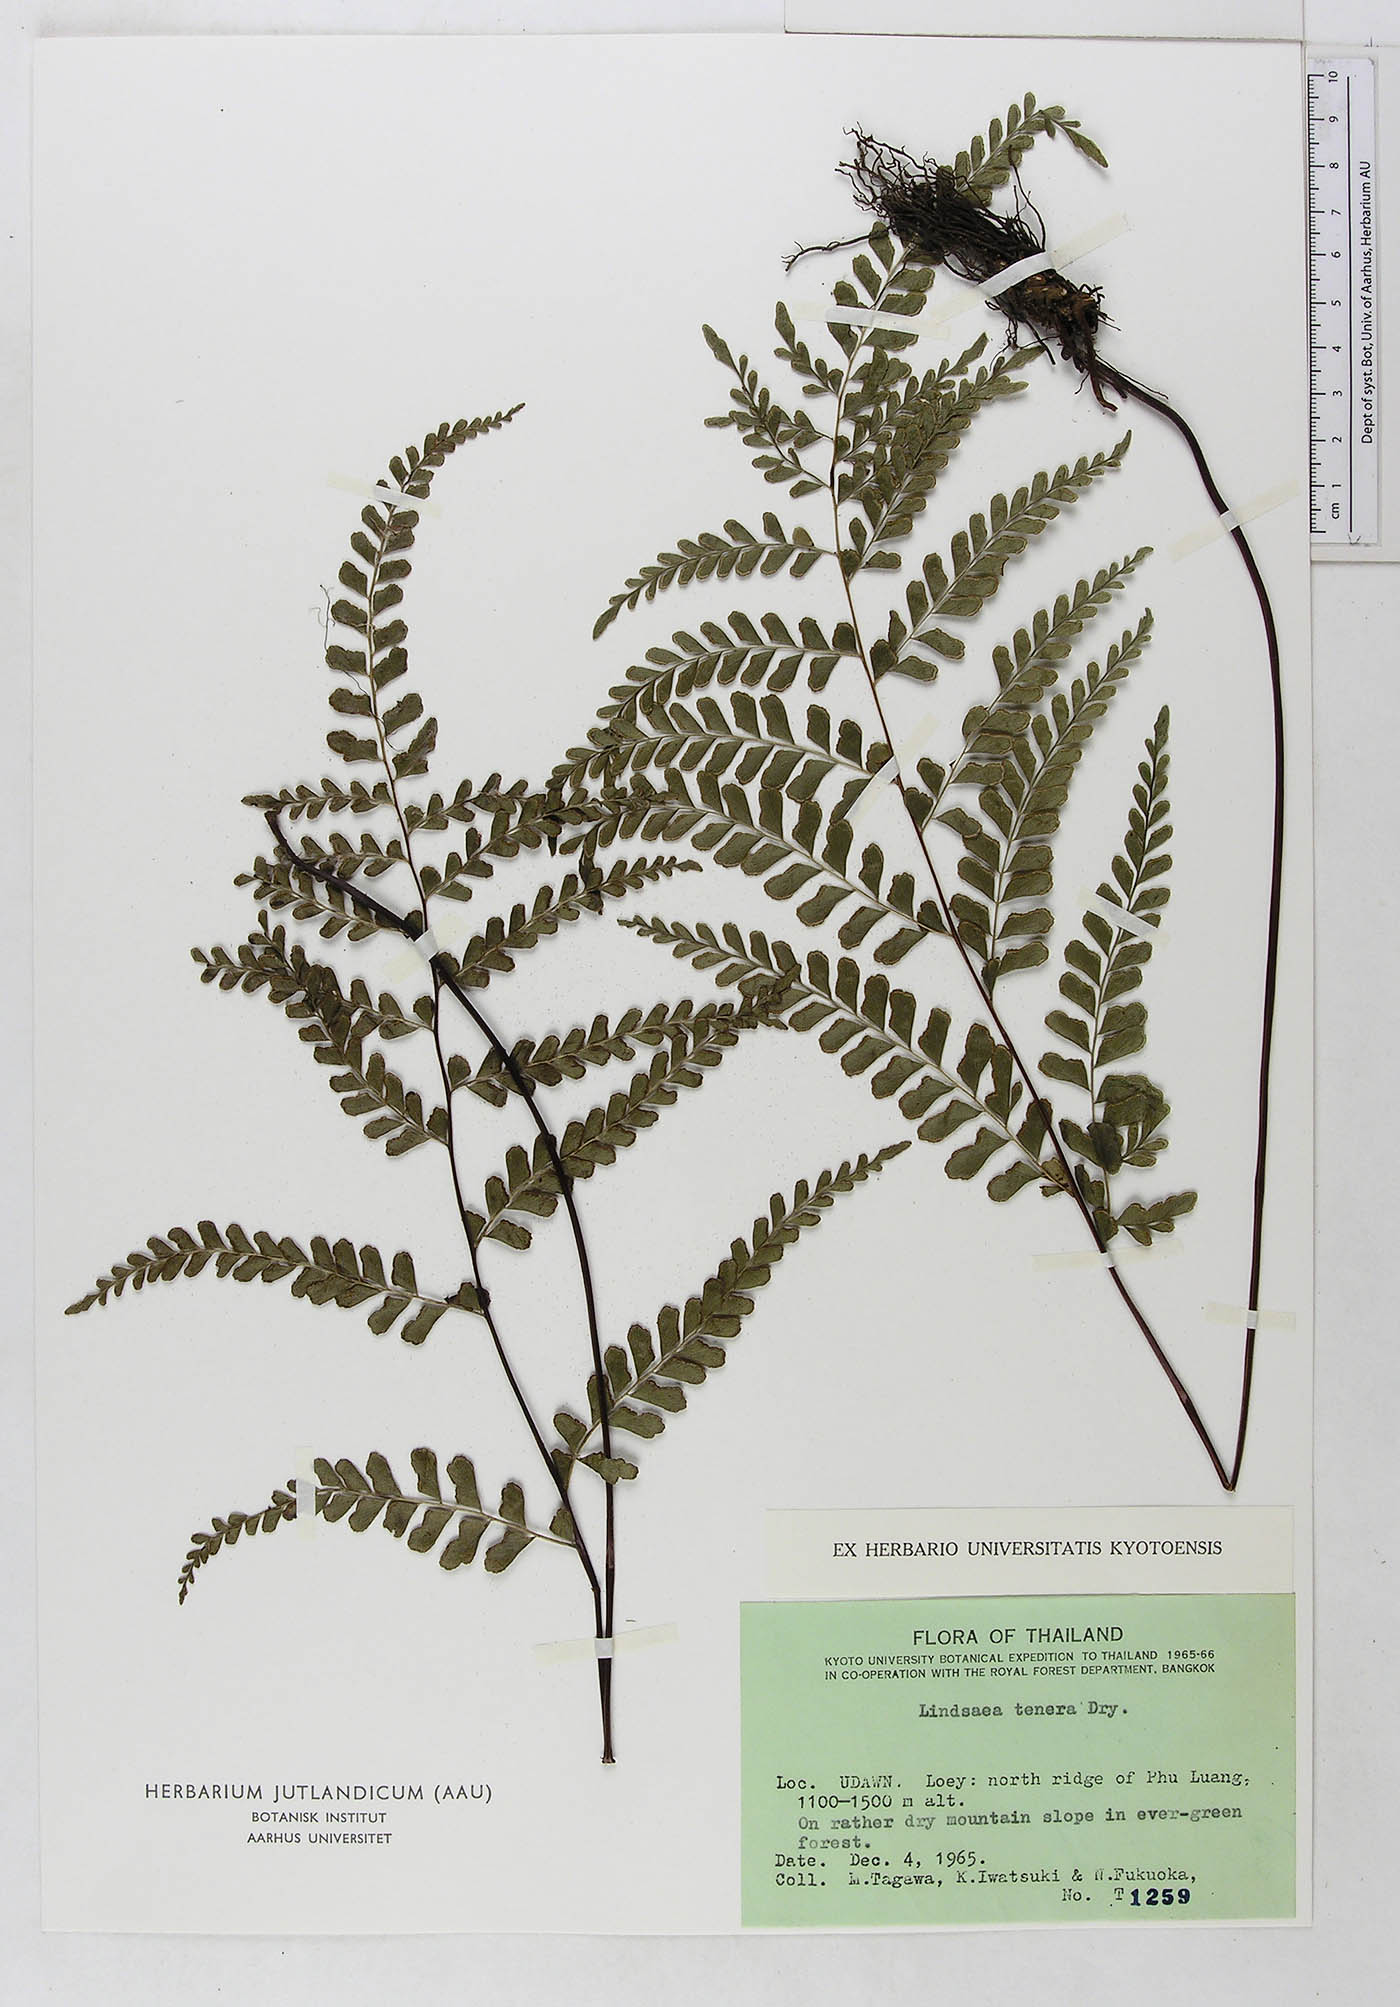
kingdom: Plantae
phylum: Tracheophyta
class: Polypodiopsida
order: Polypodiales
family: Lindsaeaceae
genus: Lindsaea
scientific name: Lindsaea tenera
